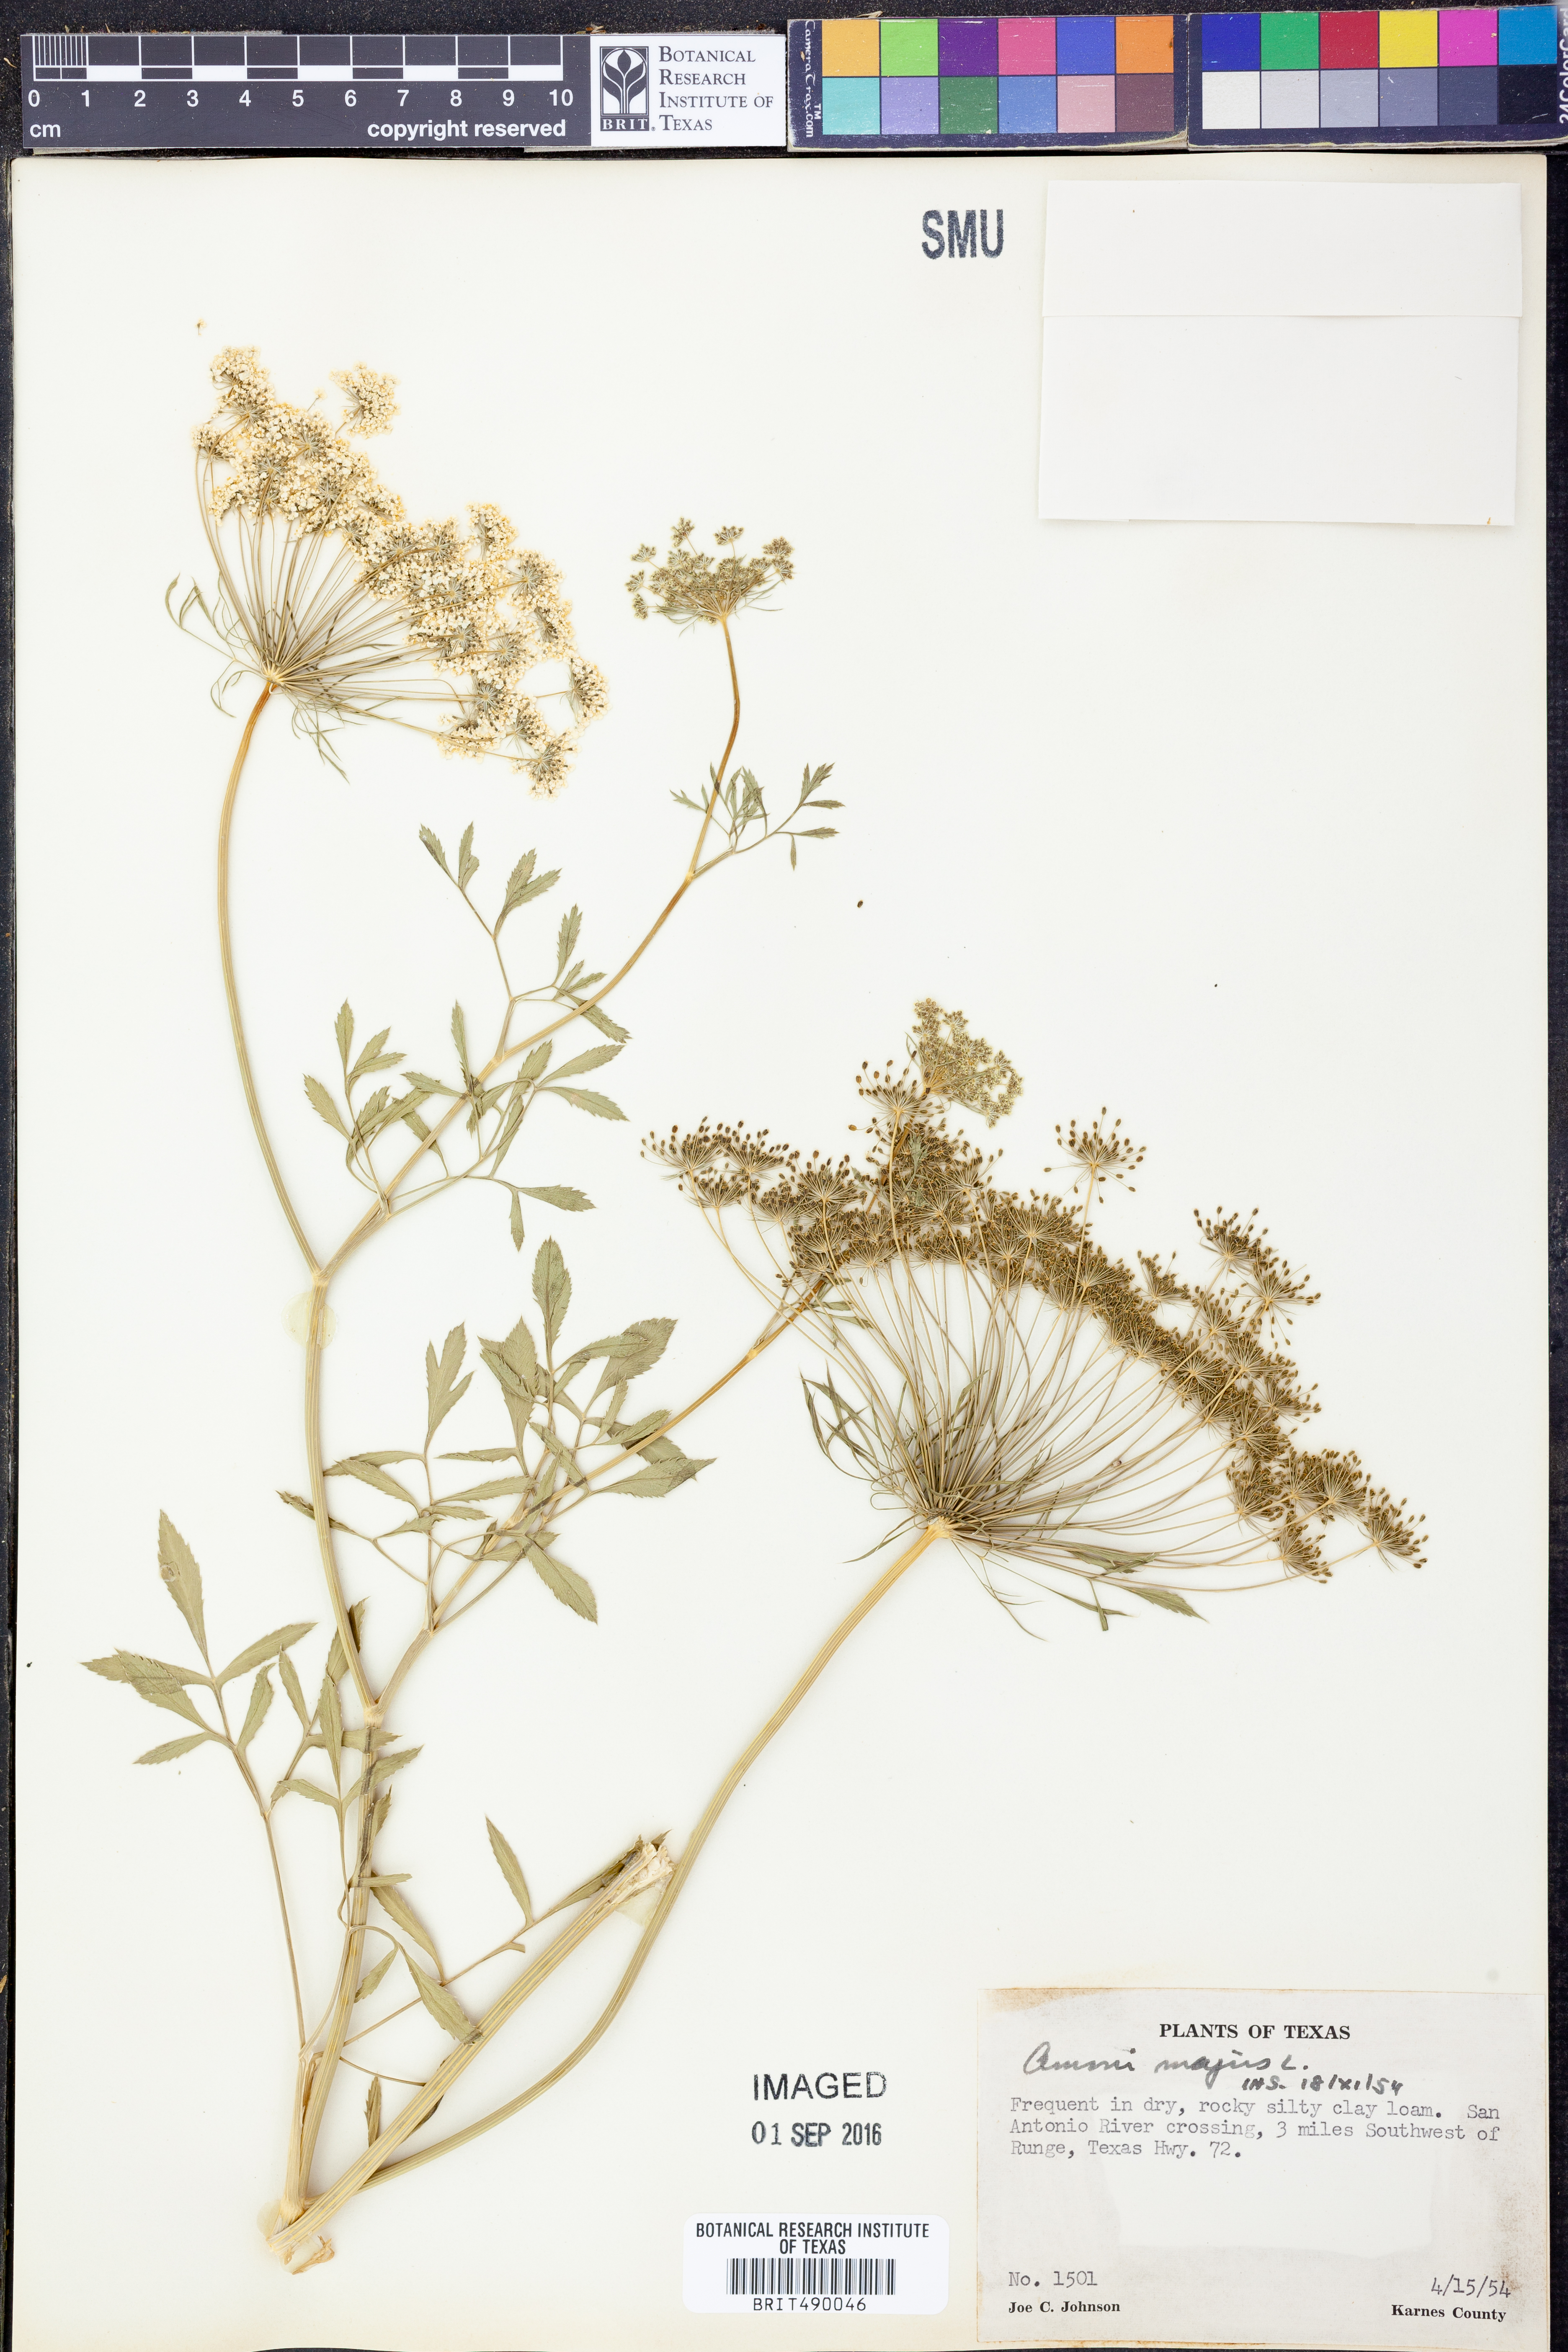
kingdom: Plantae
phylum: Tracheophyta
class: Magnoliopsida
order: Apiales
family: Apiaceae
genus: Ammi
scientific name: Ammi majus
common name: Bullwort
